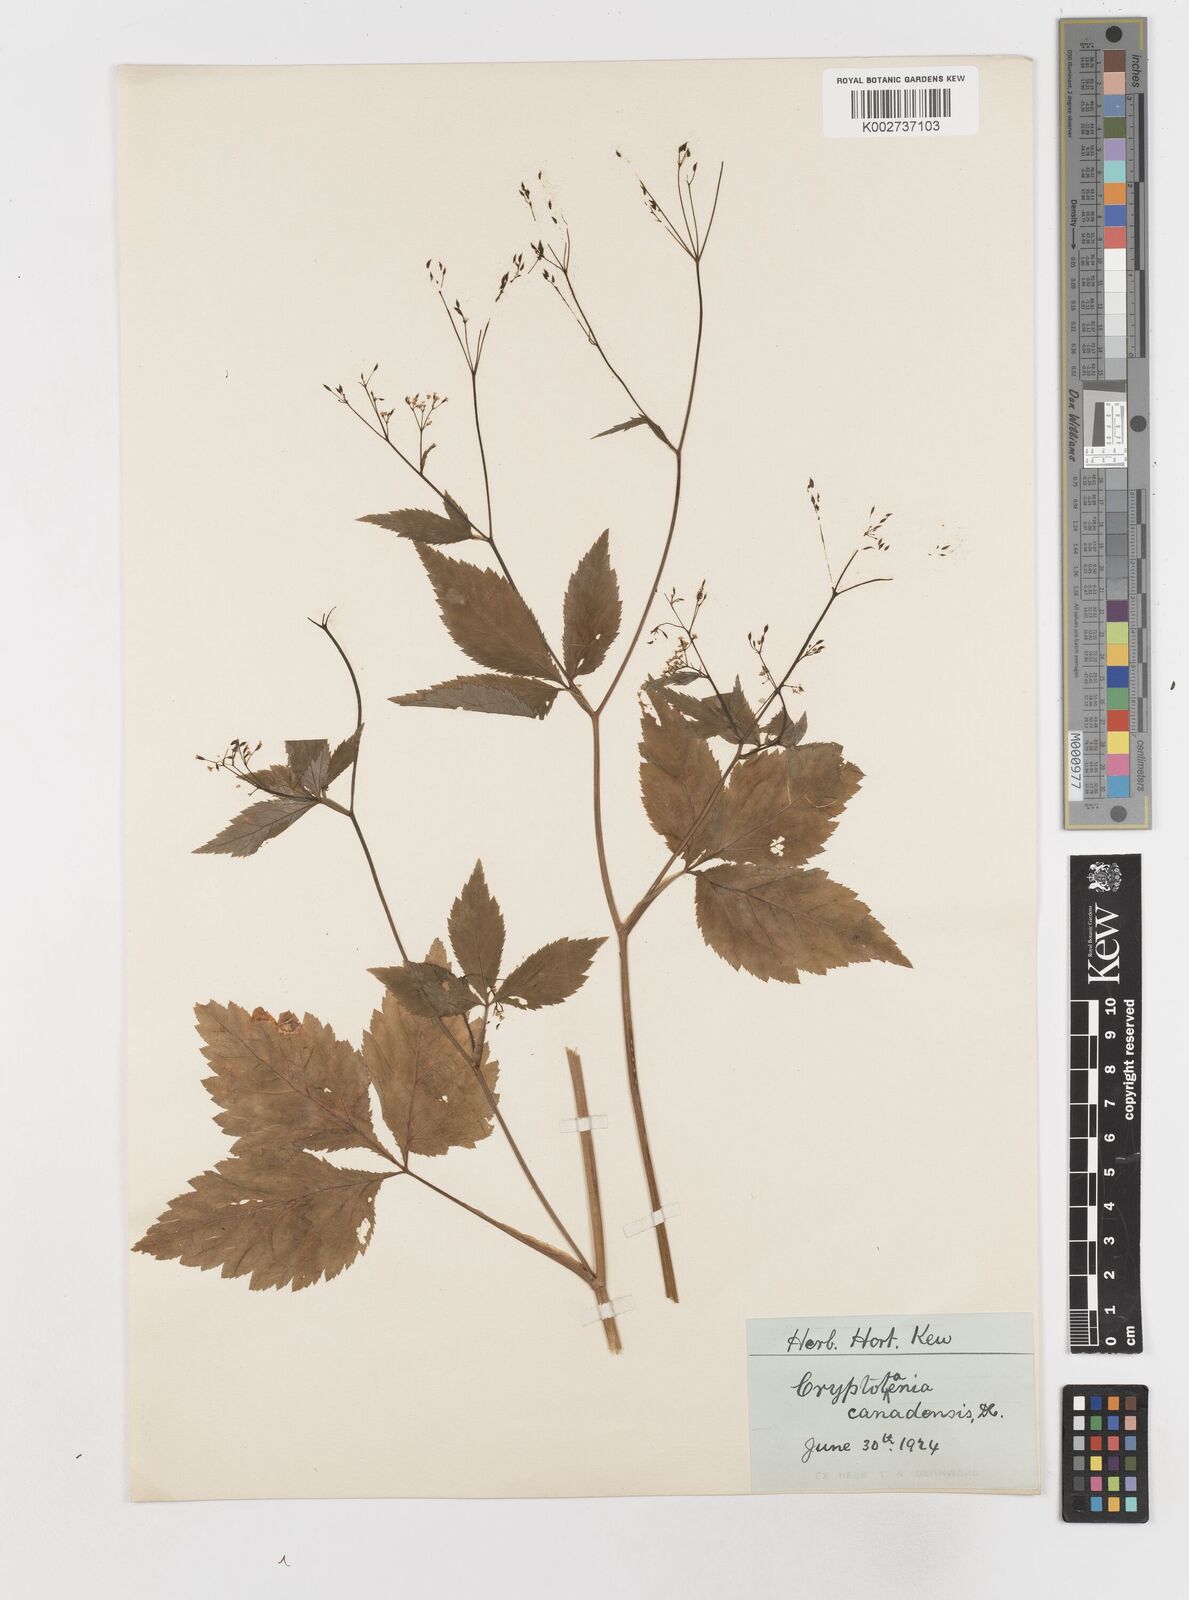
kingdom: Plantae
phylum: Tracheophyta
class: Magnoliopsida
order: Apiales
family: Apiaceae
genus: Cryptotaenia
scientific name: Cryptotaenia canadensis
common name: Honewort
